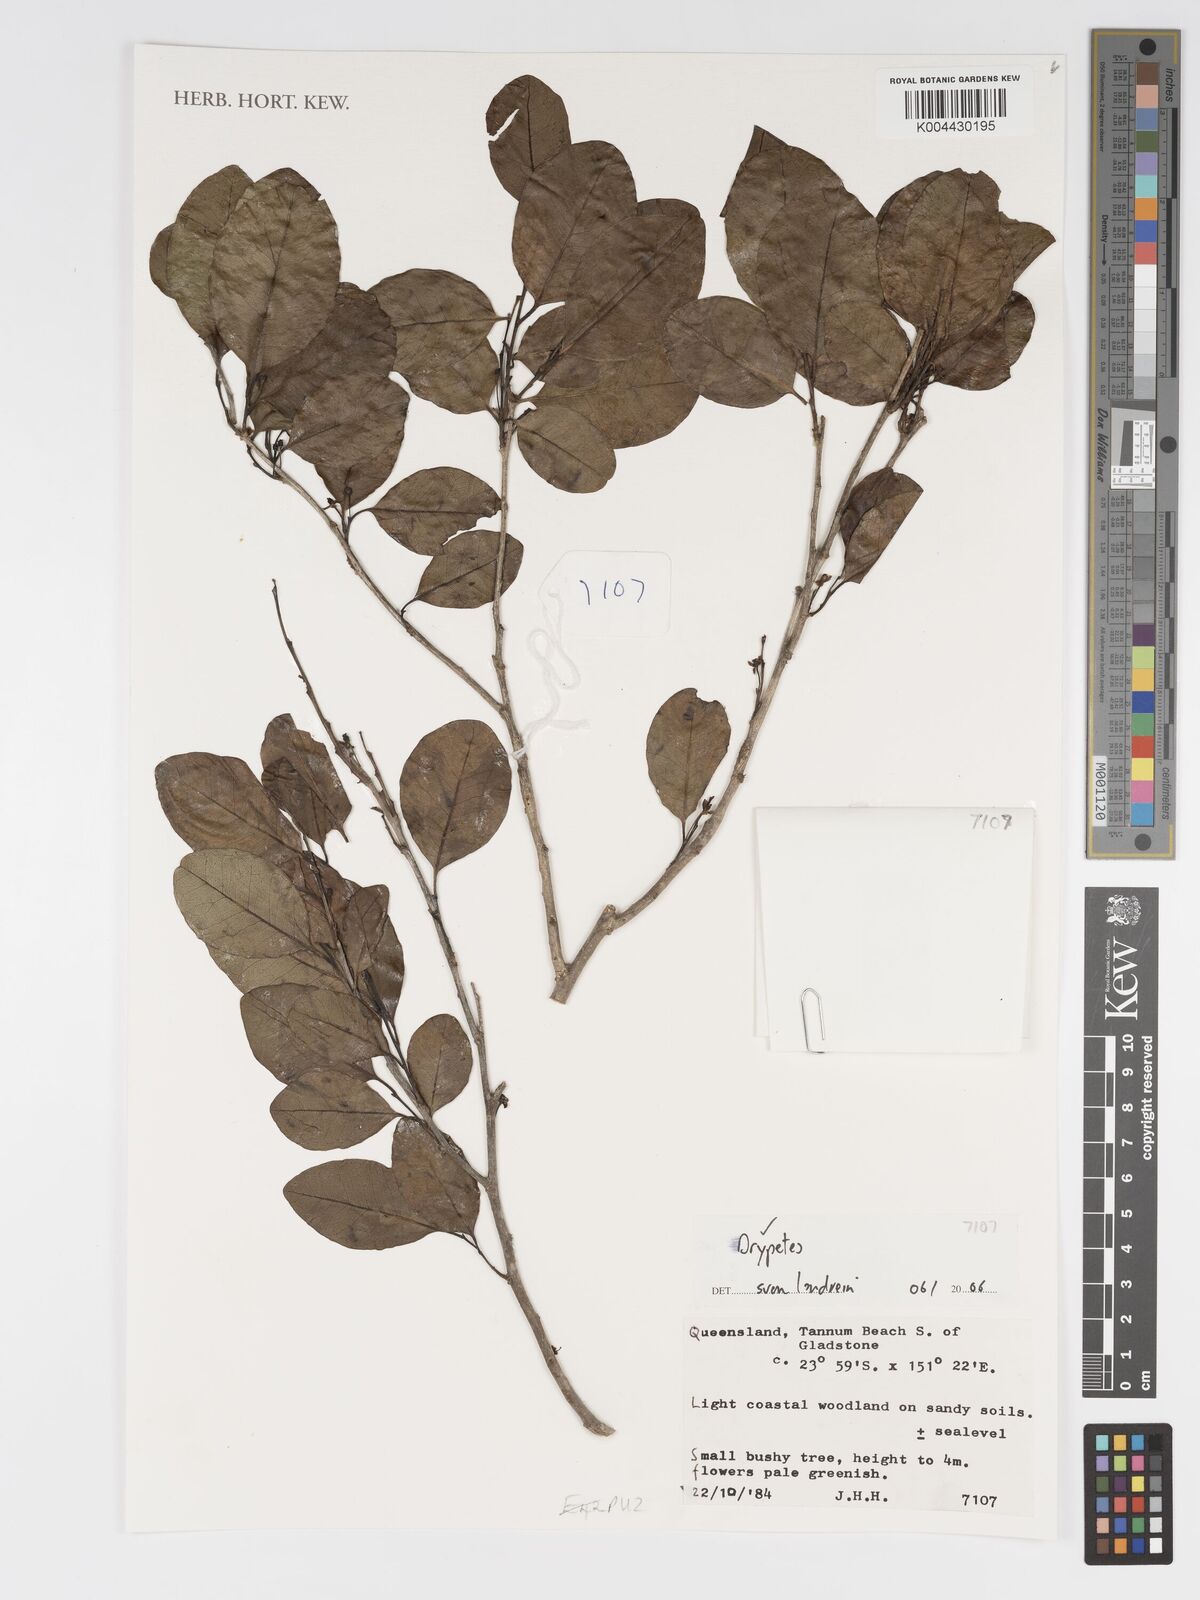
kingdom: Plantae
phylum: Tracheophyta
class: Magnoliopsida
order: Malpighiales
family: Putranjivaceae
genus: Drypetes
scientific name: Drypetes
